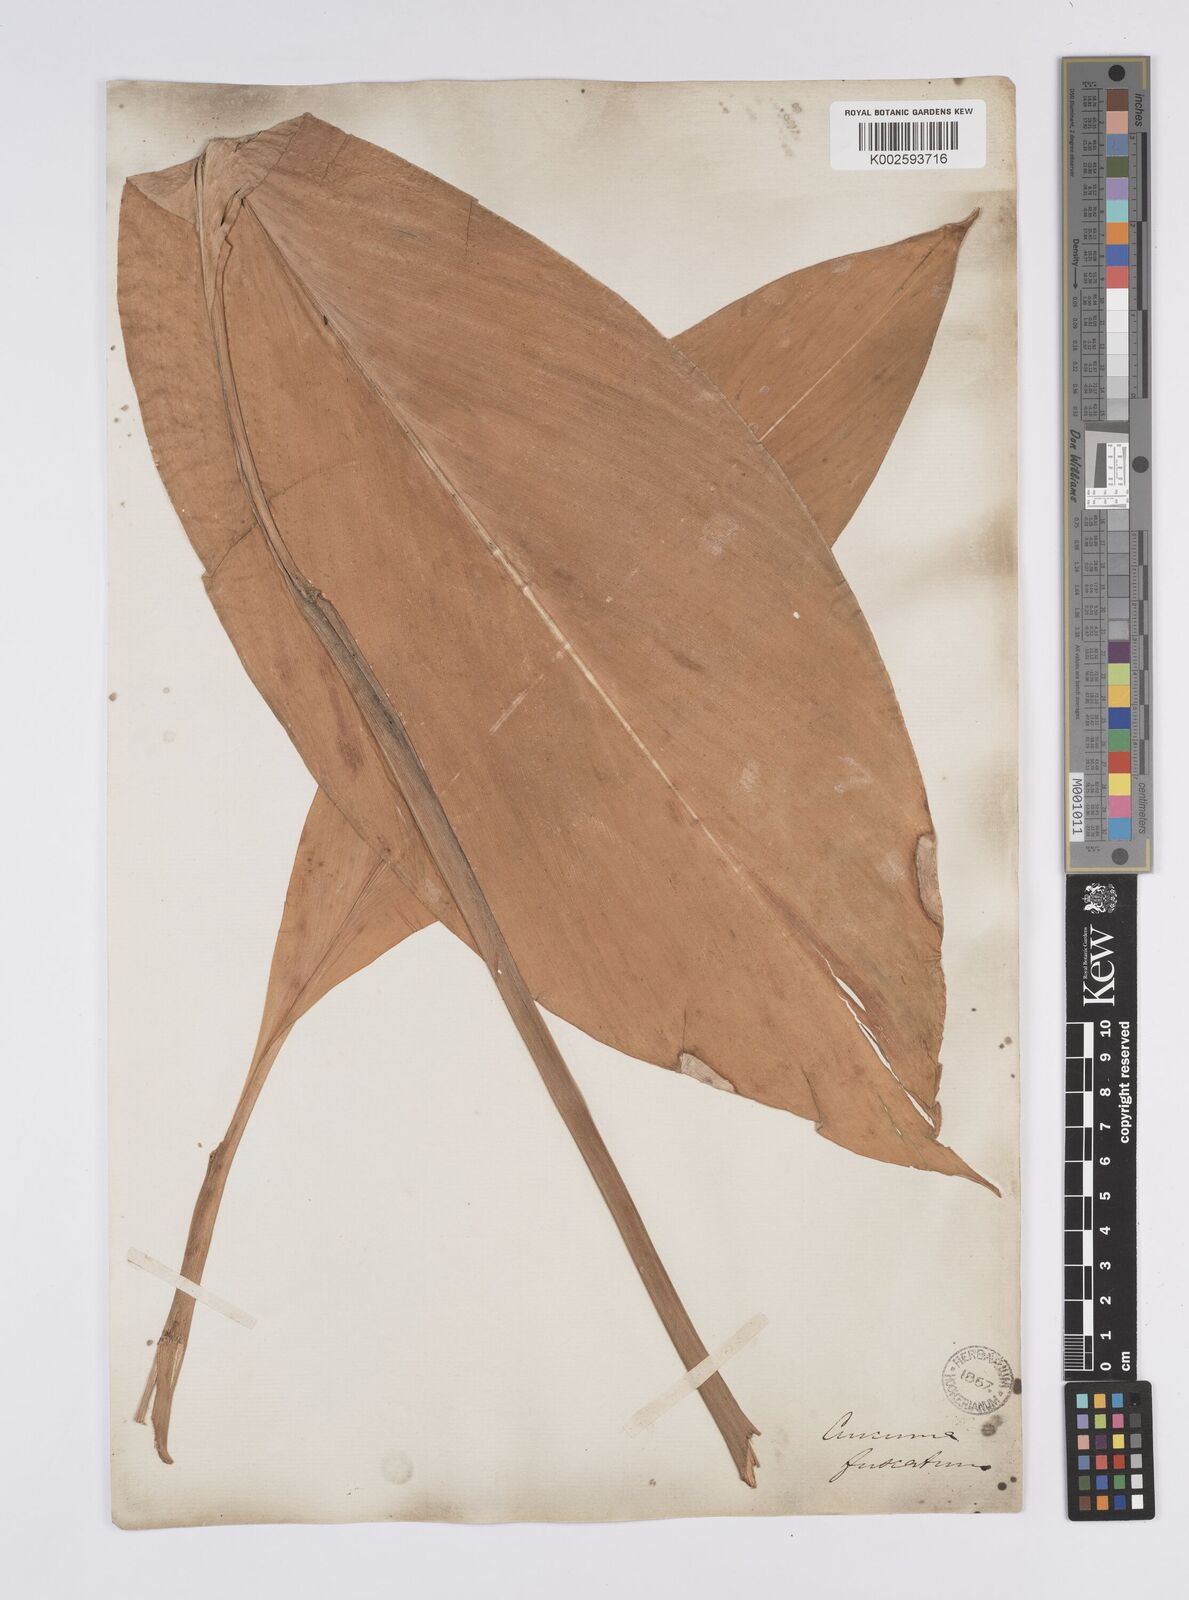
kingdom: Plantae
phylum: Tracheophyta
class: Liliopsida
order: Zingiberales
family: Zingiberaceae
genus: Curcuma
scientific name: Curcuma
